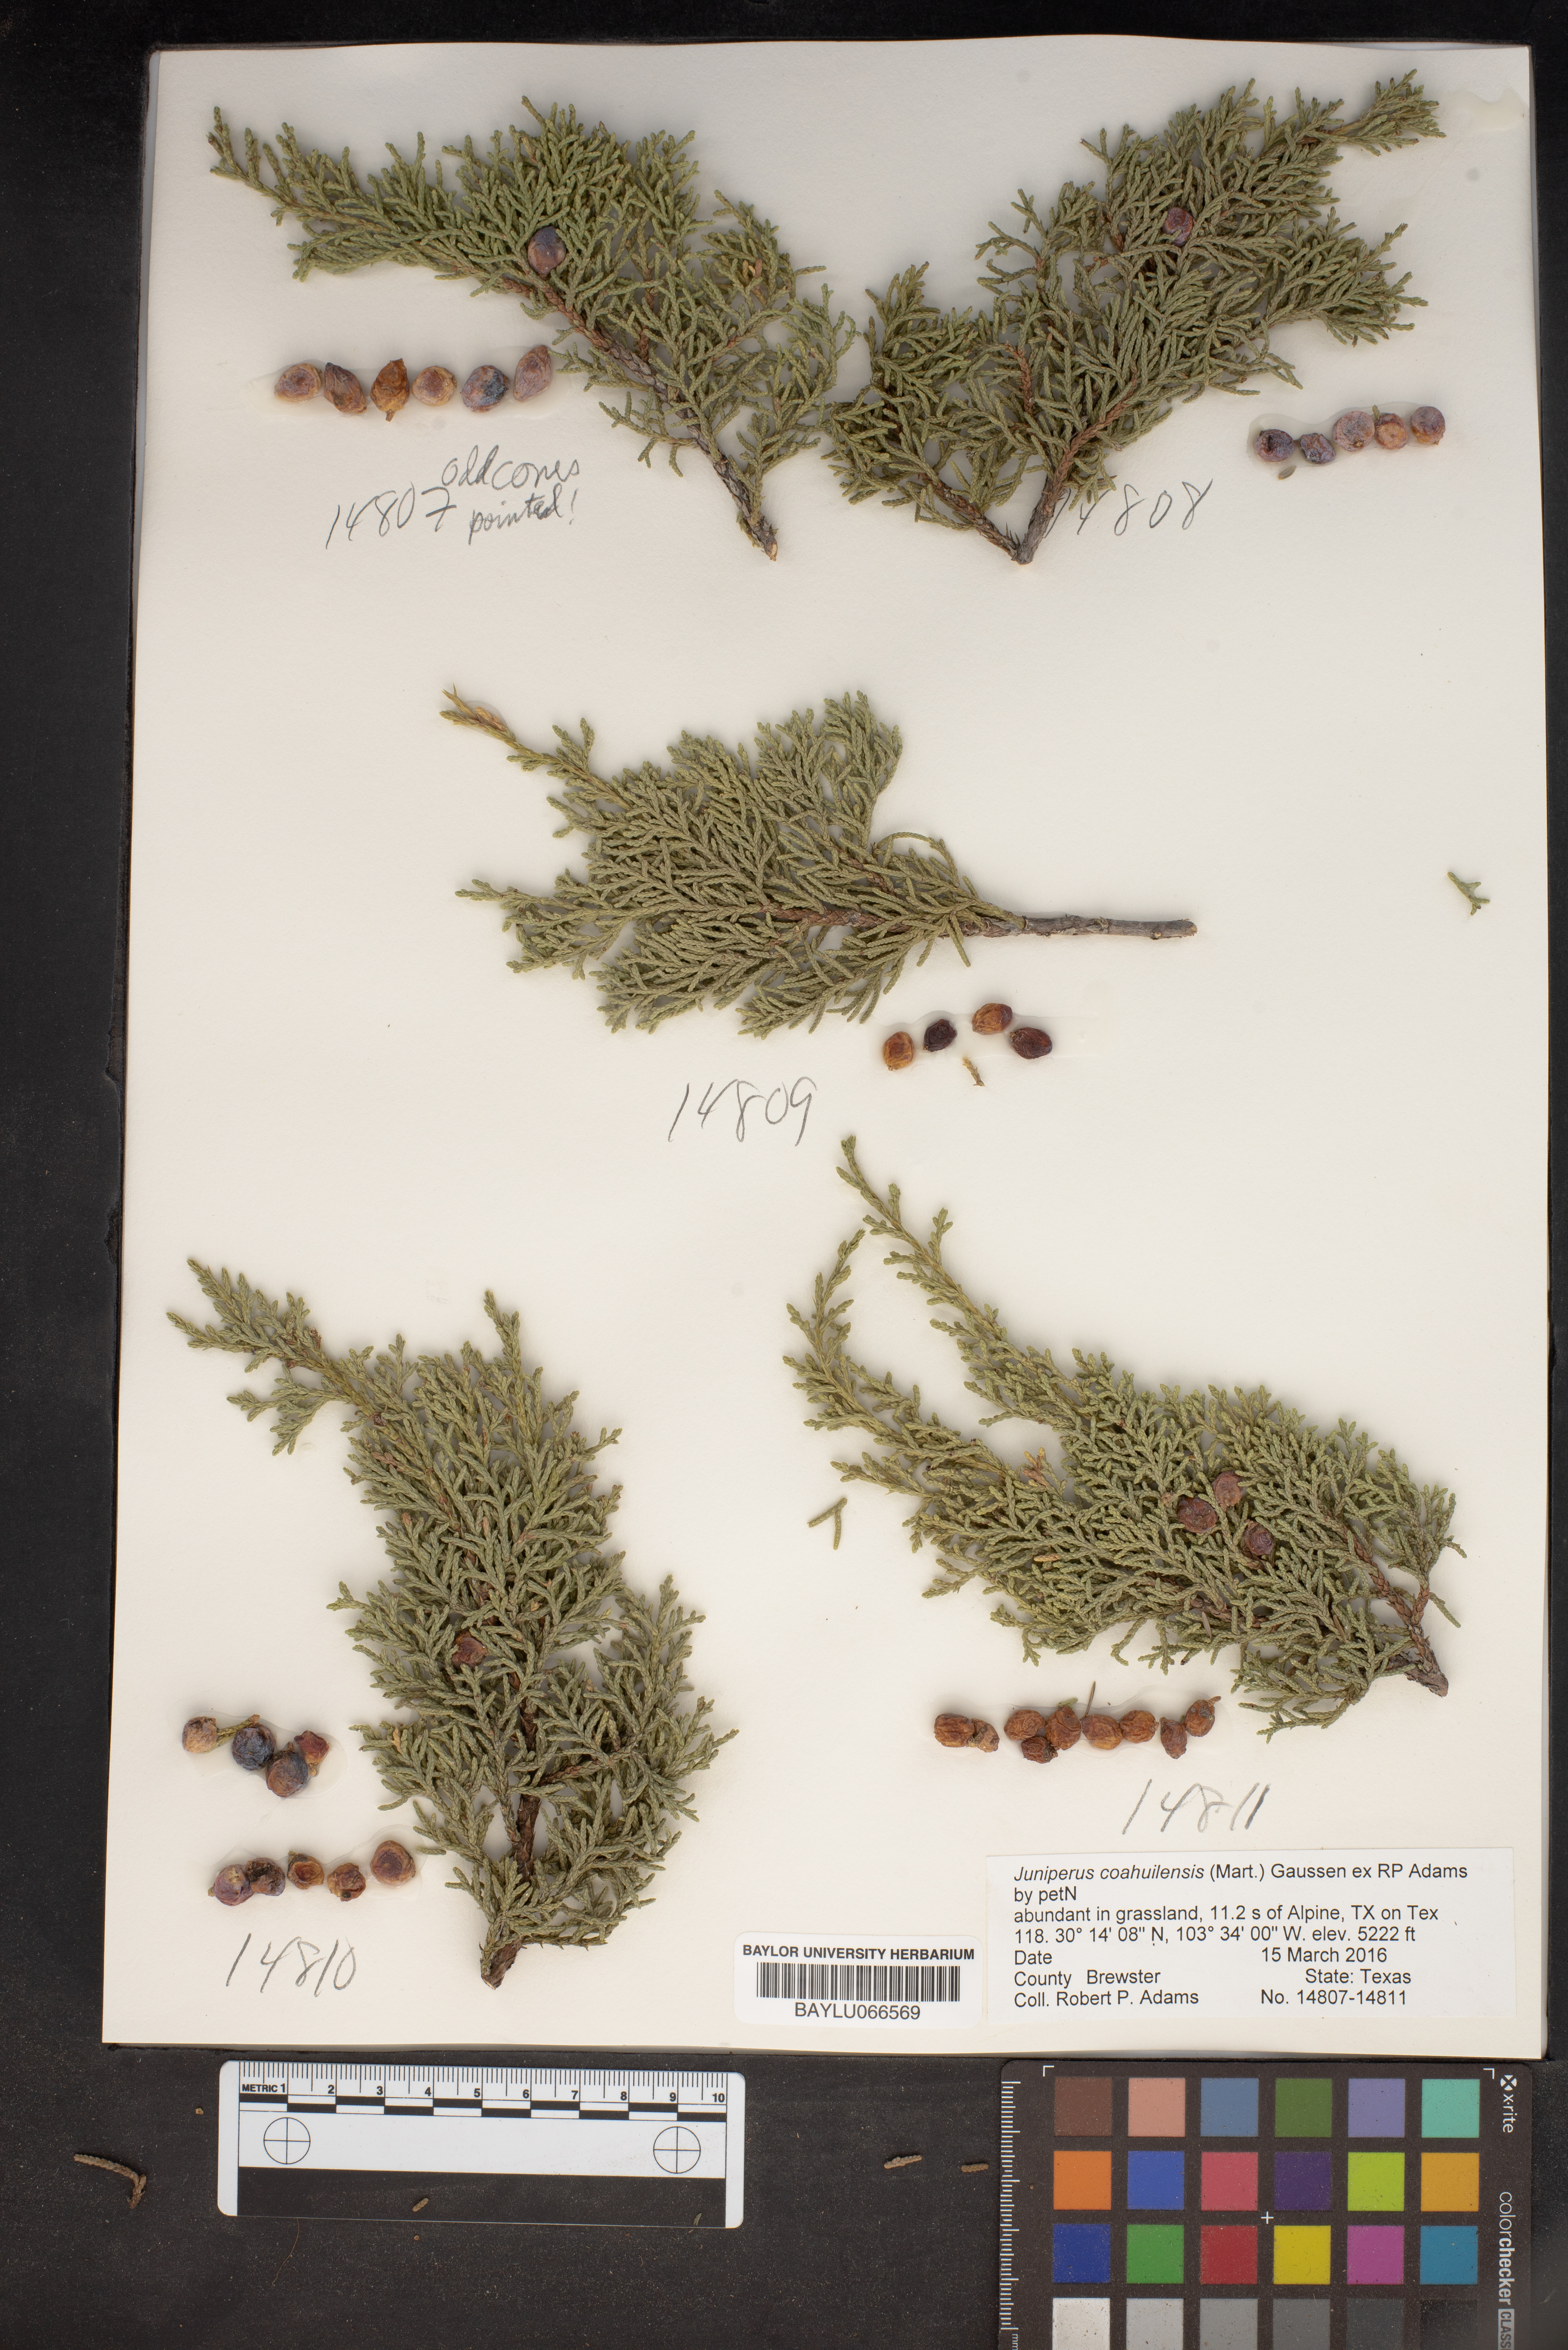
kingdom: Plantae
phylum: Tracheophyta
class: Pinopsida
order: Pinales
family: Cupressaceae
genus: Juniperus
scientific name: Juniperus coahuilensis
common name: Roseberry
